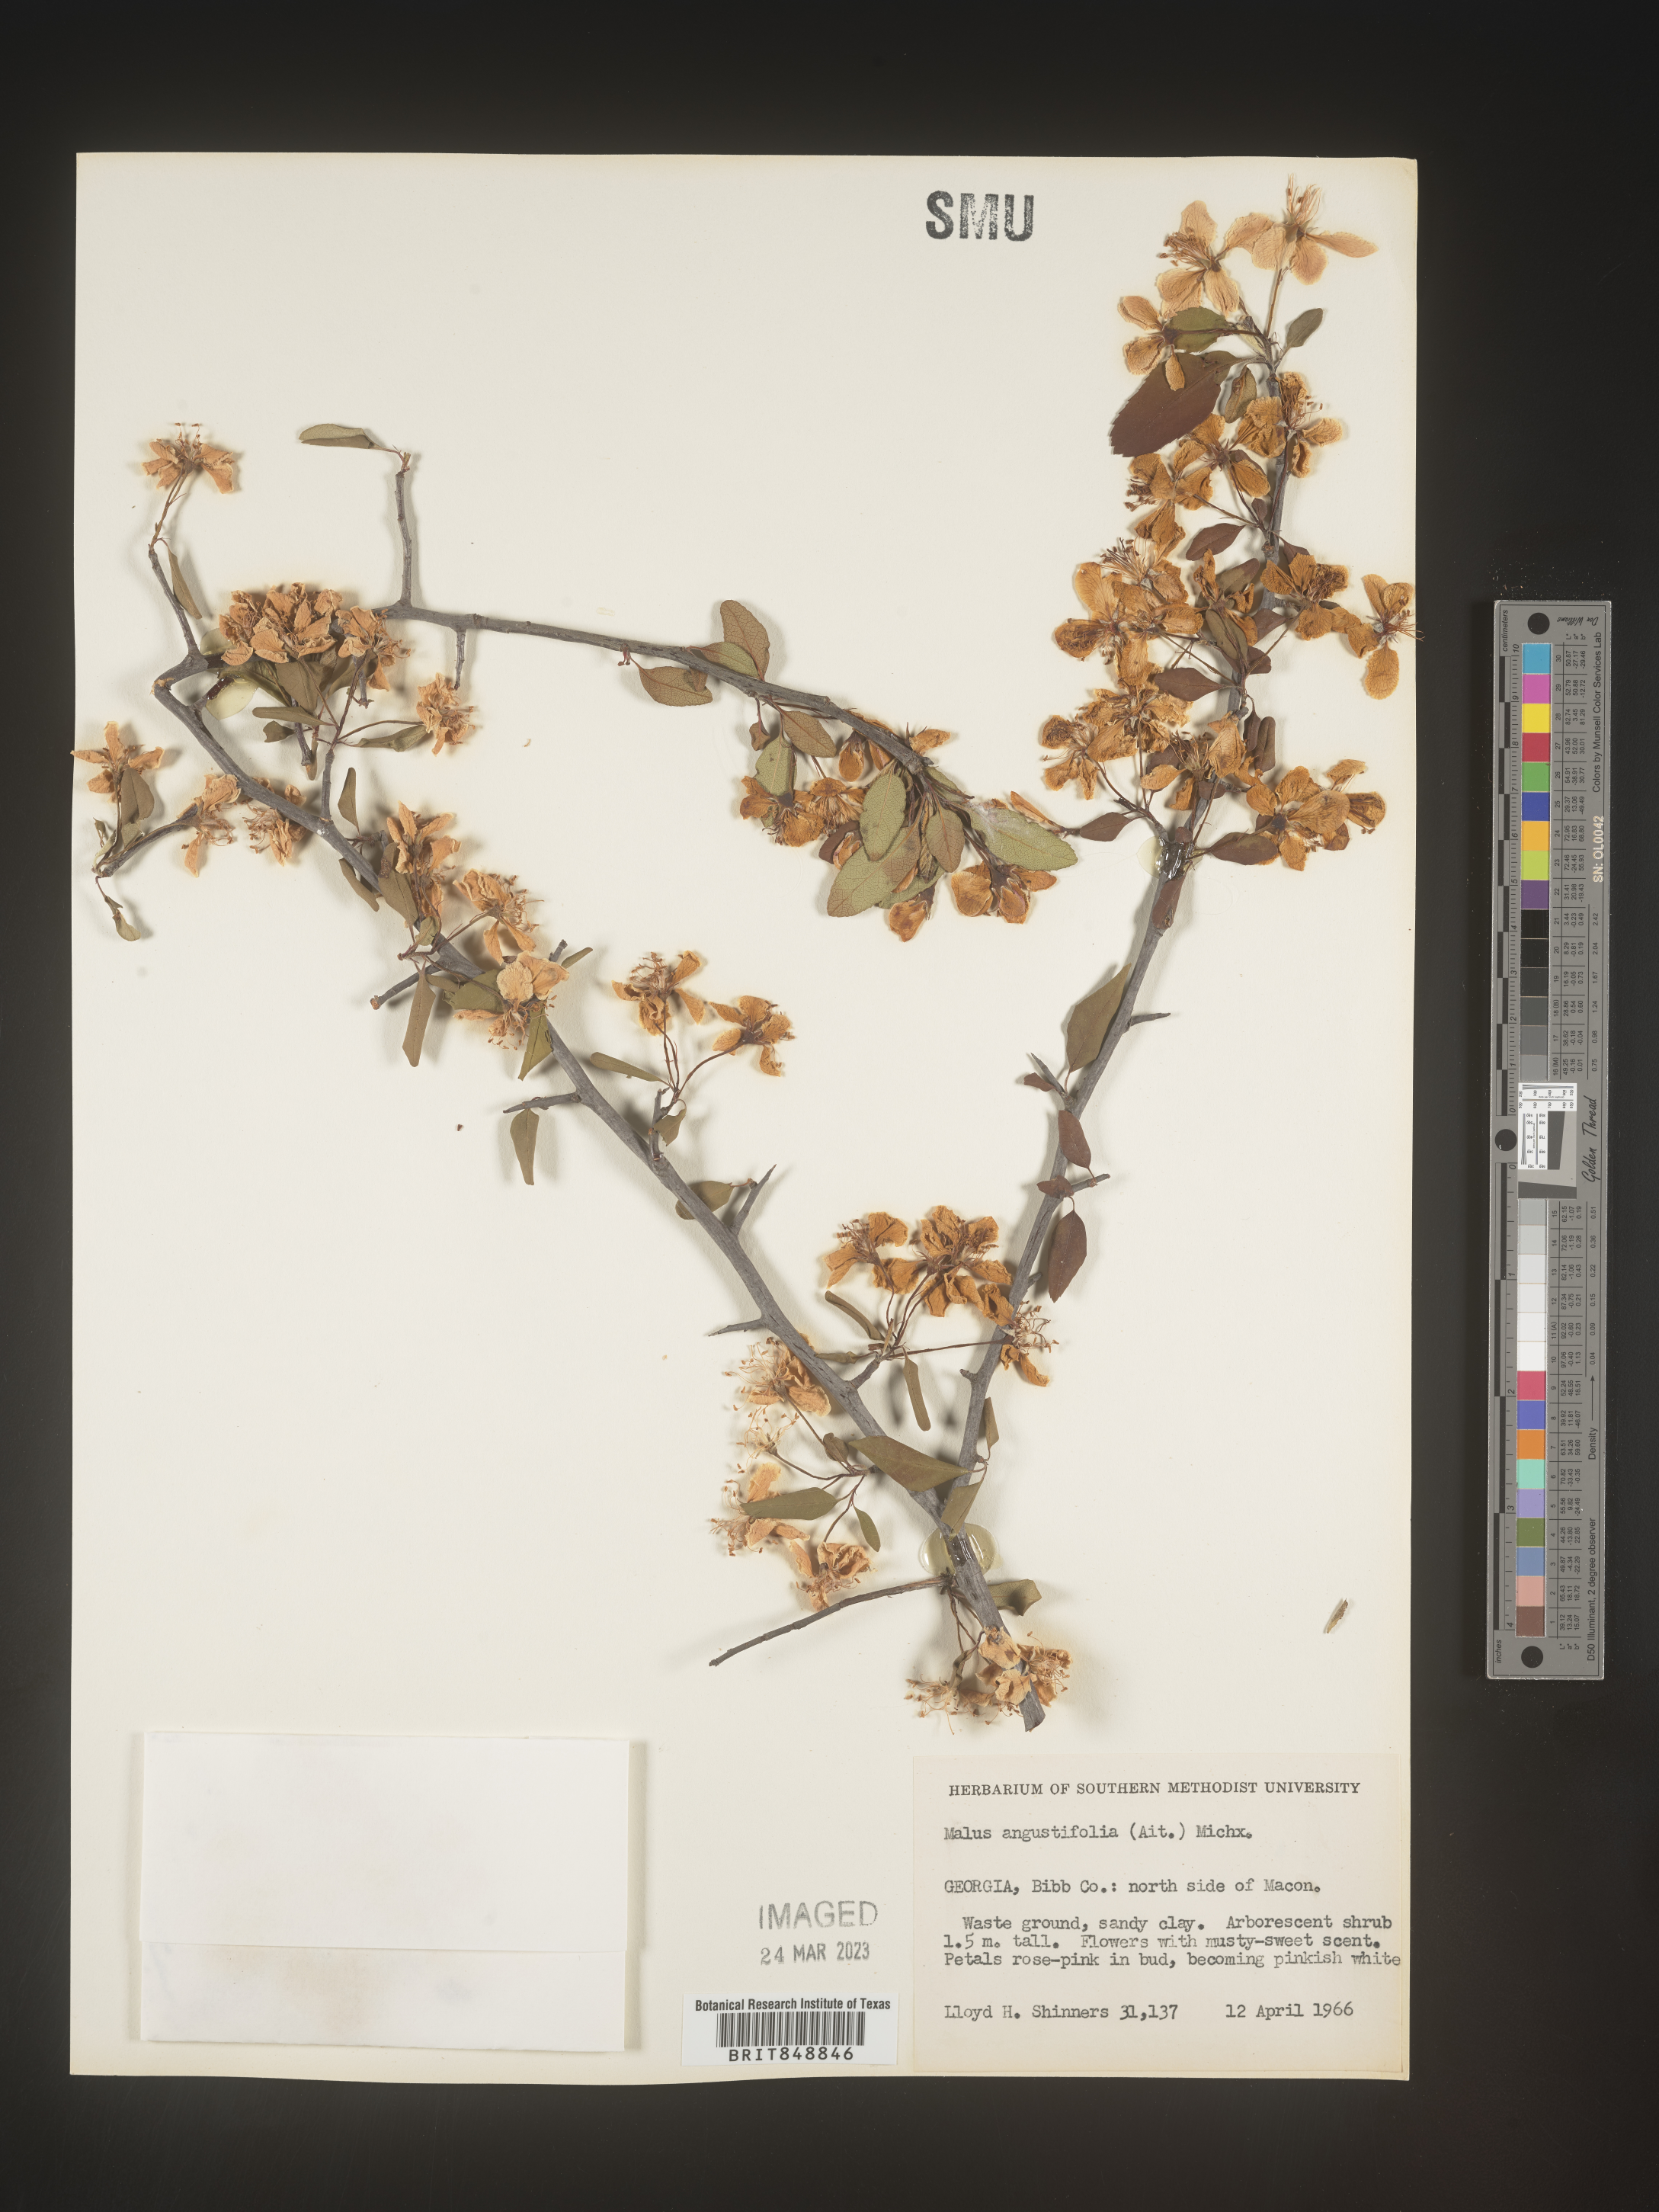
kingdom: Plantae
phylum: Tracheophyta
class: Magnoliopsida
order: Rosales
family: Rosaceae
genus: Malus
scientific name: Malus angustifolia
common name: Southern crab apple
